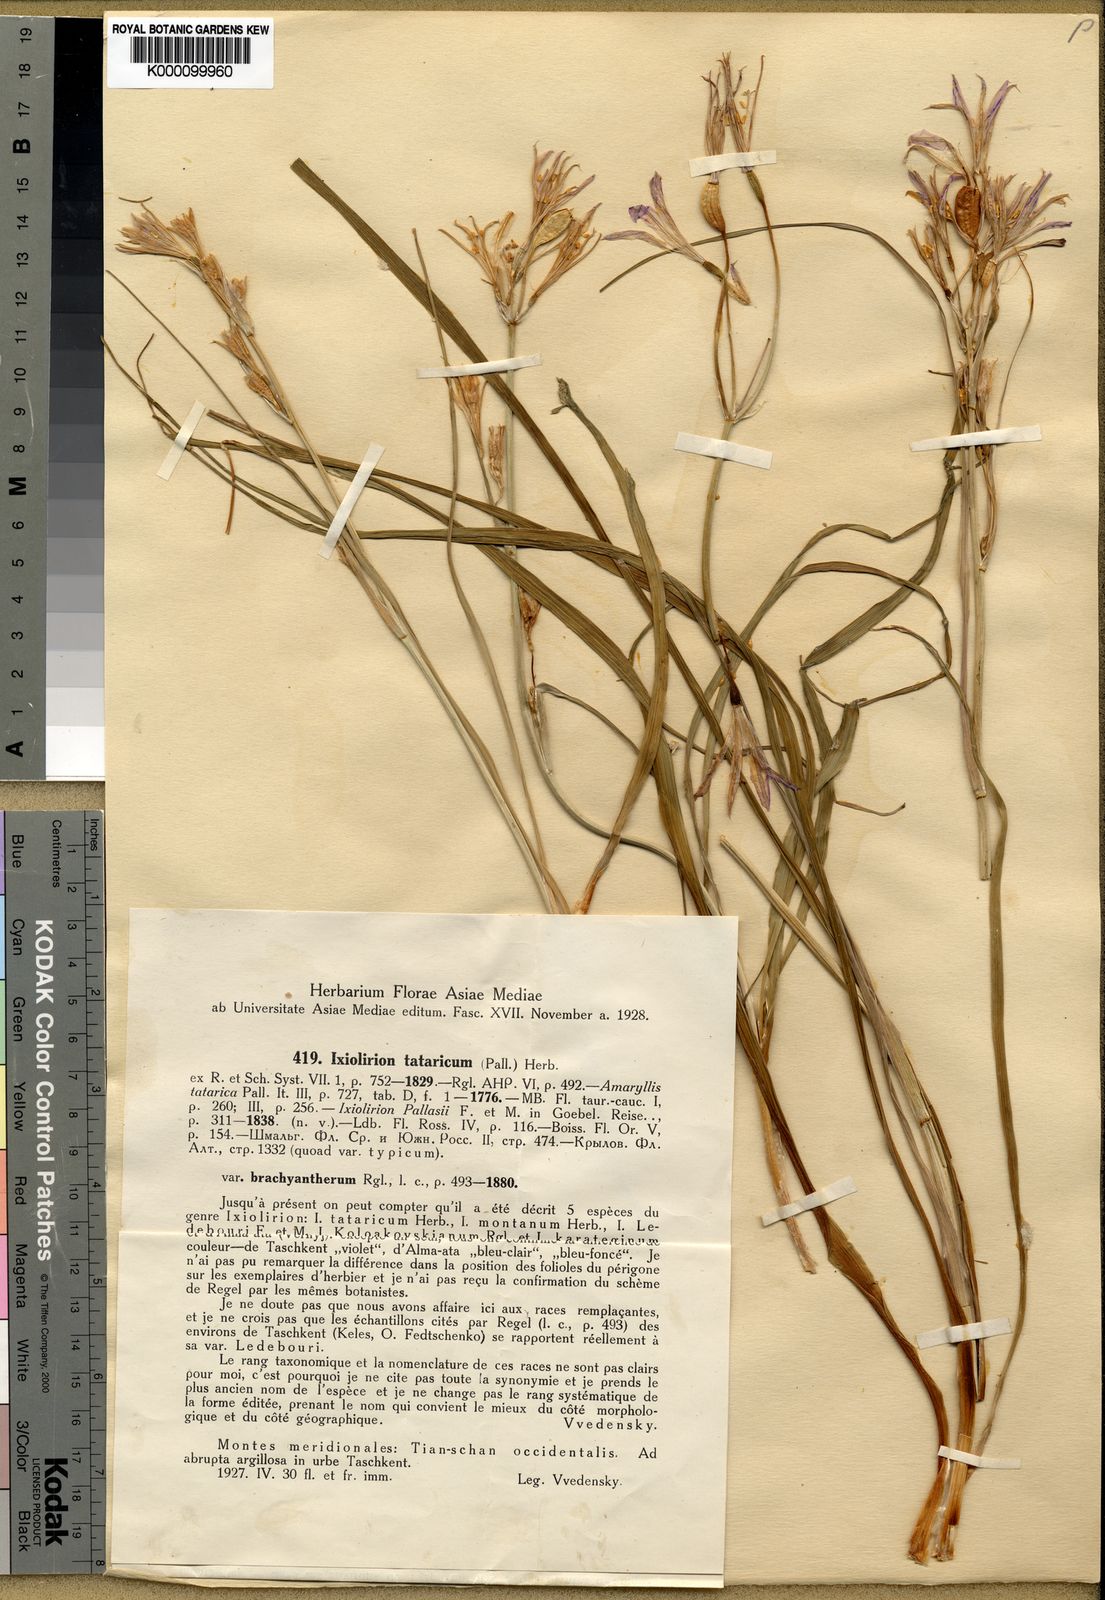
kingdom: Plantae
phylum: Tracheophyta
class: Liliopsida
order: Asparagales
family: Ixioliriaceae
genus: Ixiolirion
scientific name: Ixiolirion
